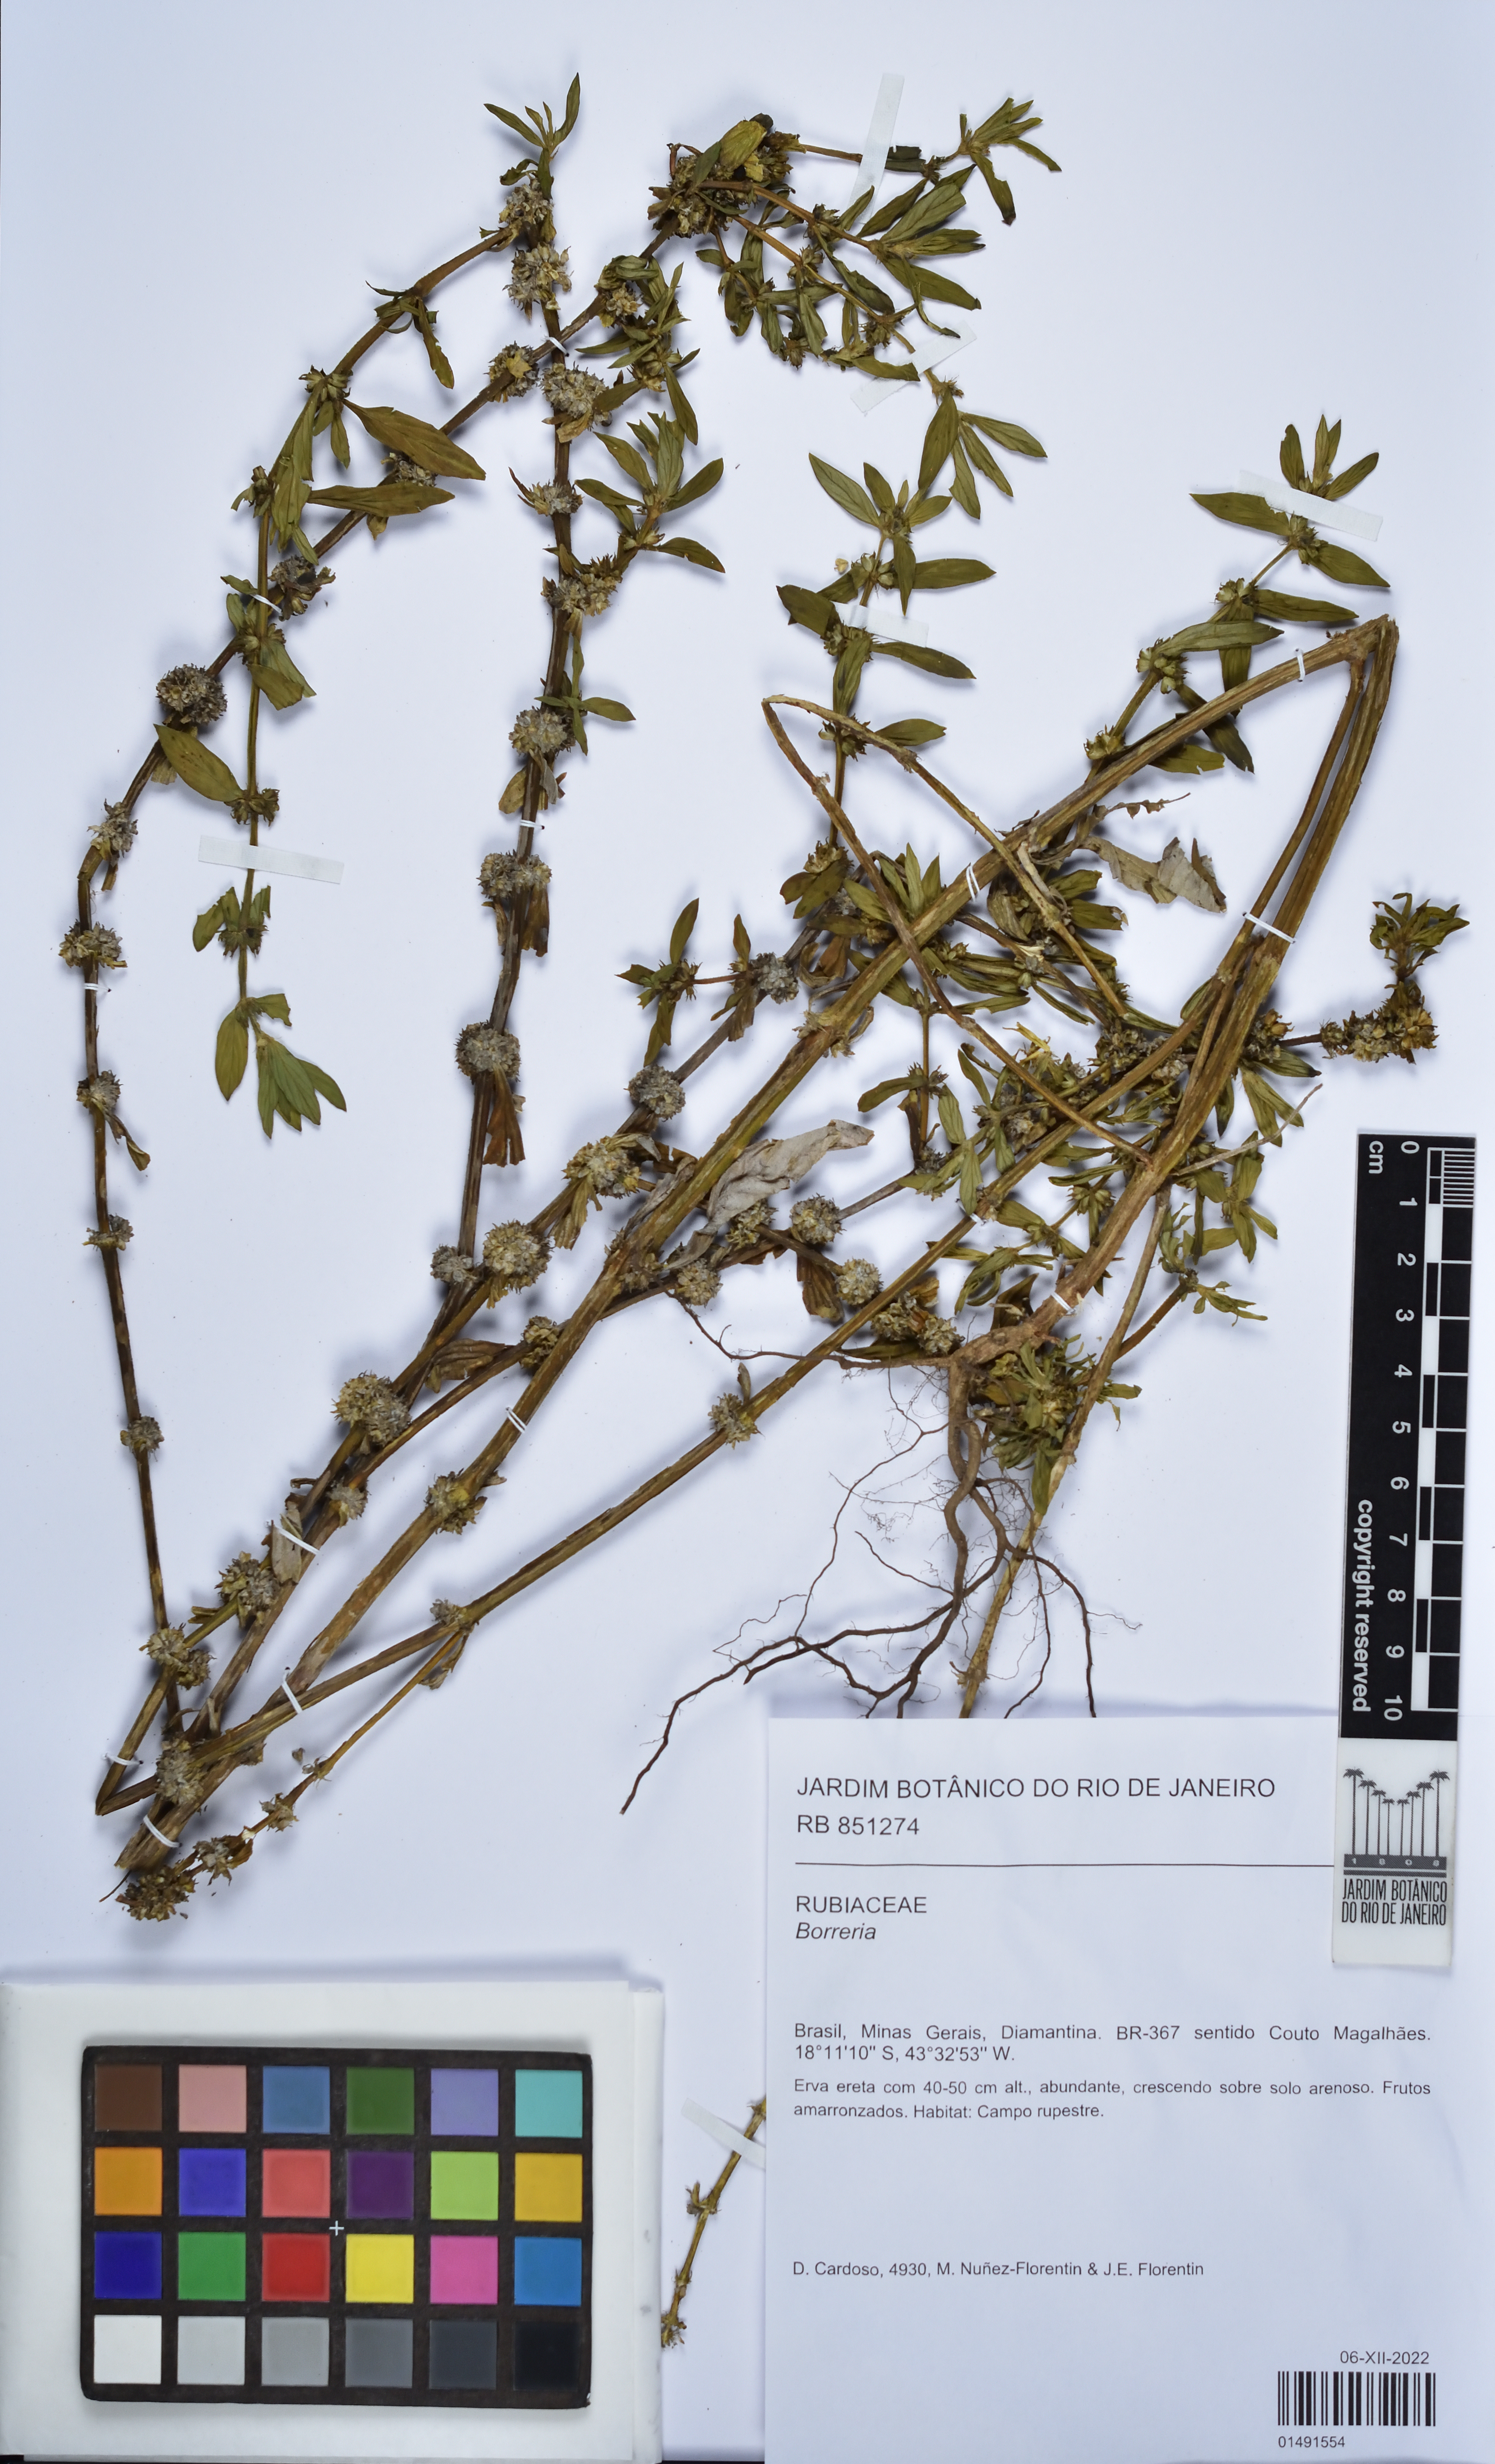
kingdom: Plantae
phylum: Tracheophyta
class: Magnoliopsida
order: Gentianales
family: Rubiaceae
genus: Spermacoce
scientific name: Spermacoce
